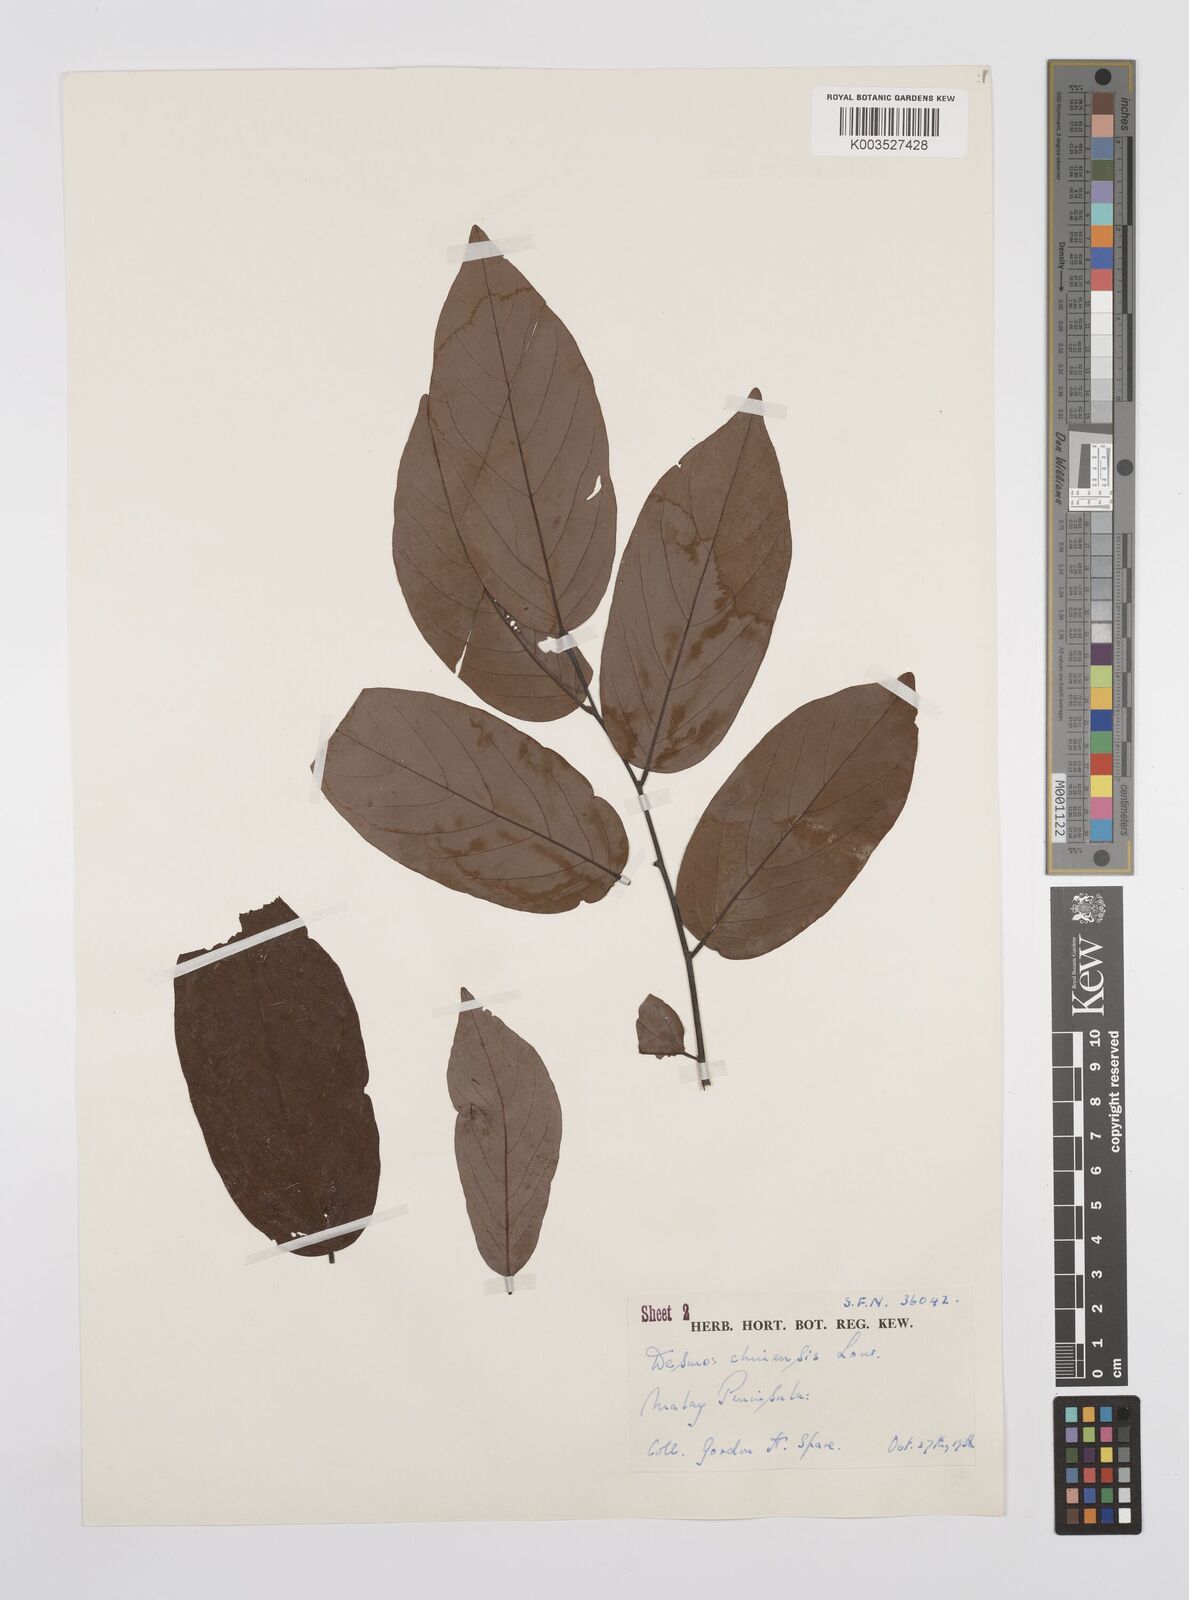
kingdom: Plantae
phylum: Tracheophyta
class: Magnoliopsida
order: Magnoliales
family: Annonaceae
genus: Desmos
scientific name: Desmos chinensis
